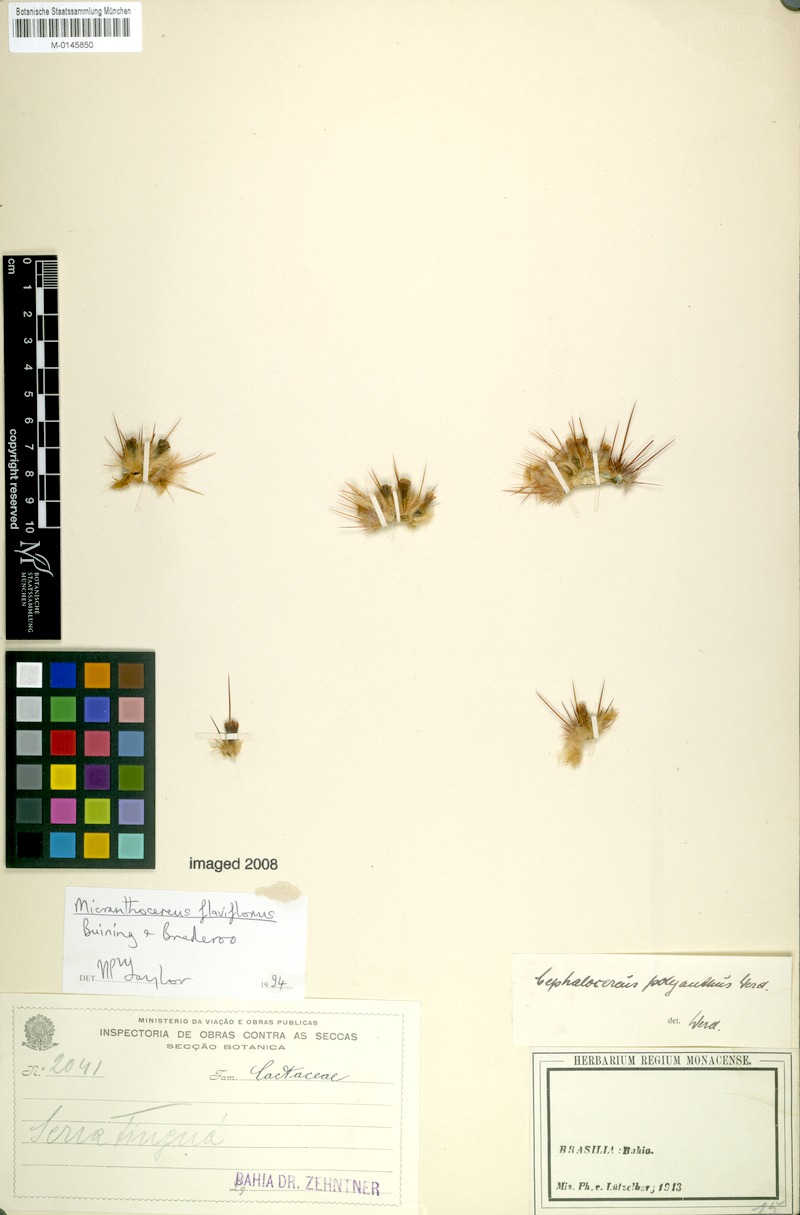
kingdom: Plantae
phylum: Tracheophyta
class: Magnoliopsida
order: Caryophyllales
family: Cactaceae
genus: Micranthocereus
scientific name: Micranthocereus flaviflorus
